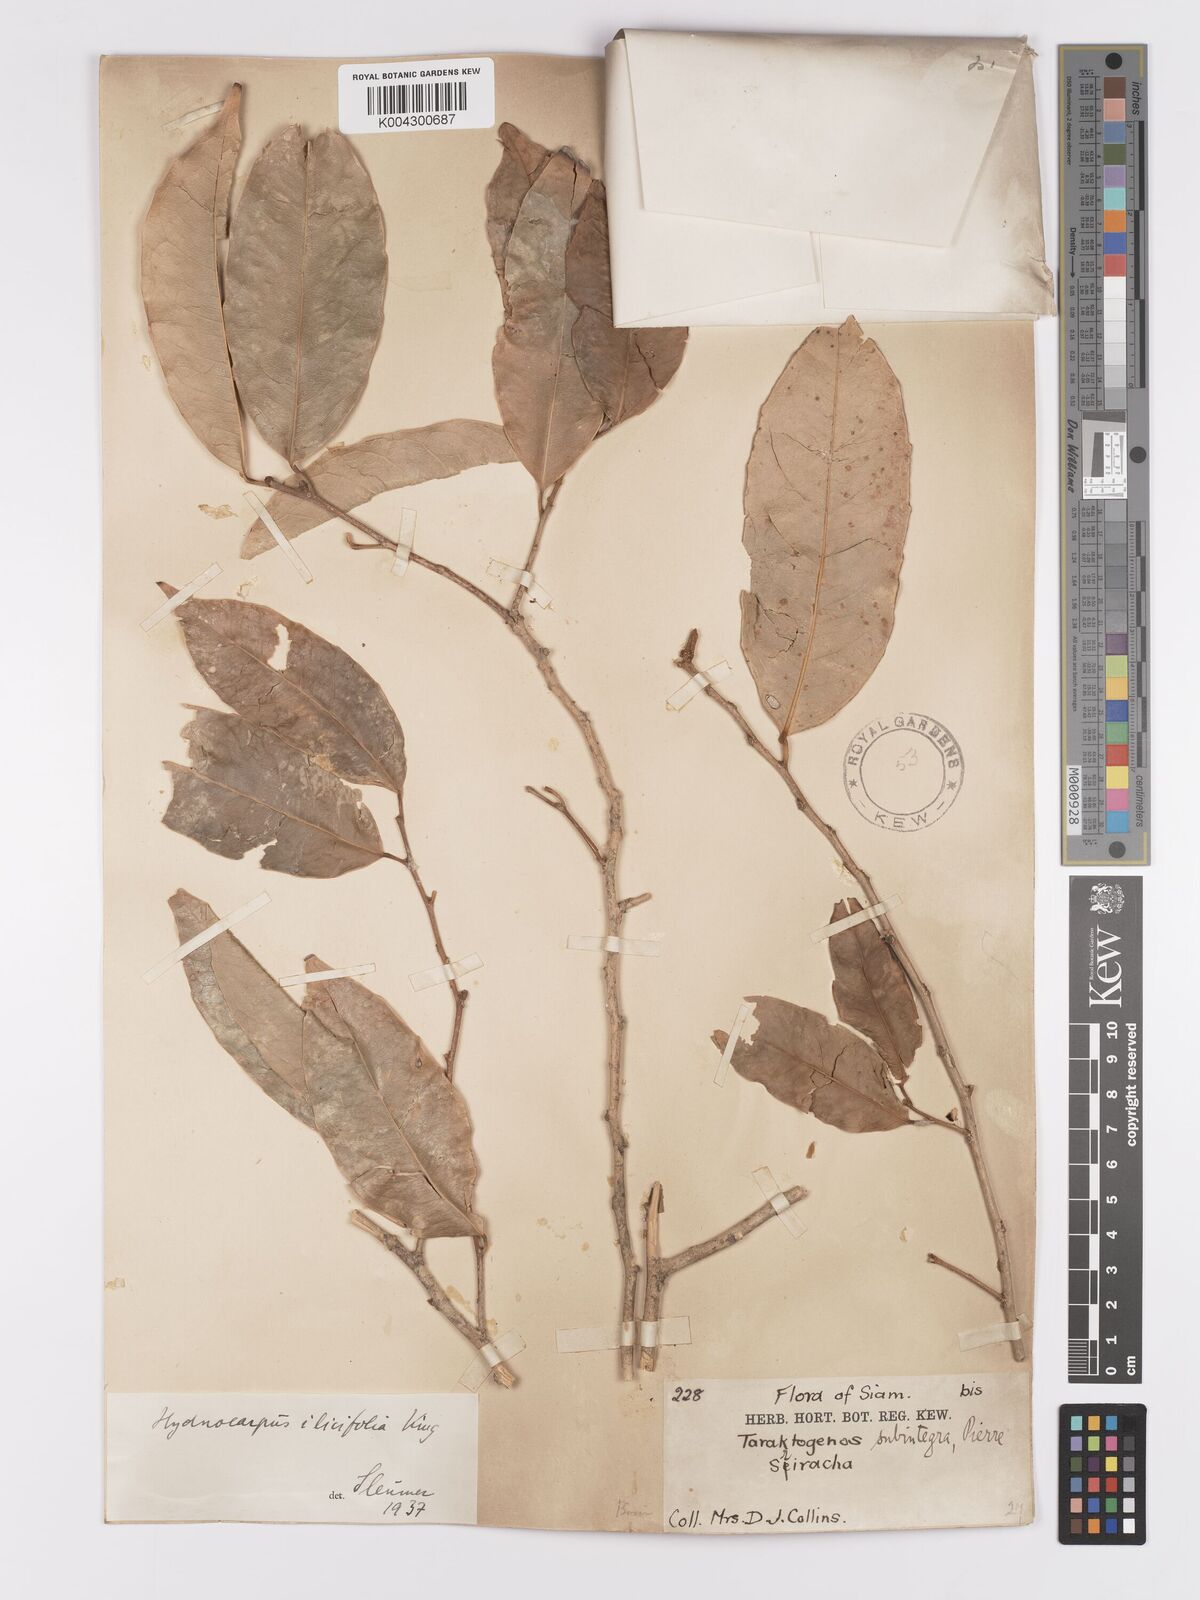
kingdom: Plantae
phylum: Tracheophyta
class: Magnoliopsida
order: Malpighiales
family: Achariaceae
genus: Hydnocarpus
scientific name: Hydnocarpus ilicifolius
